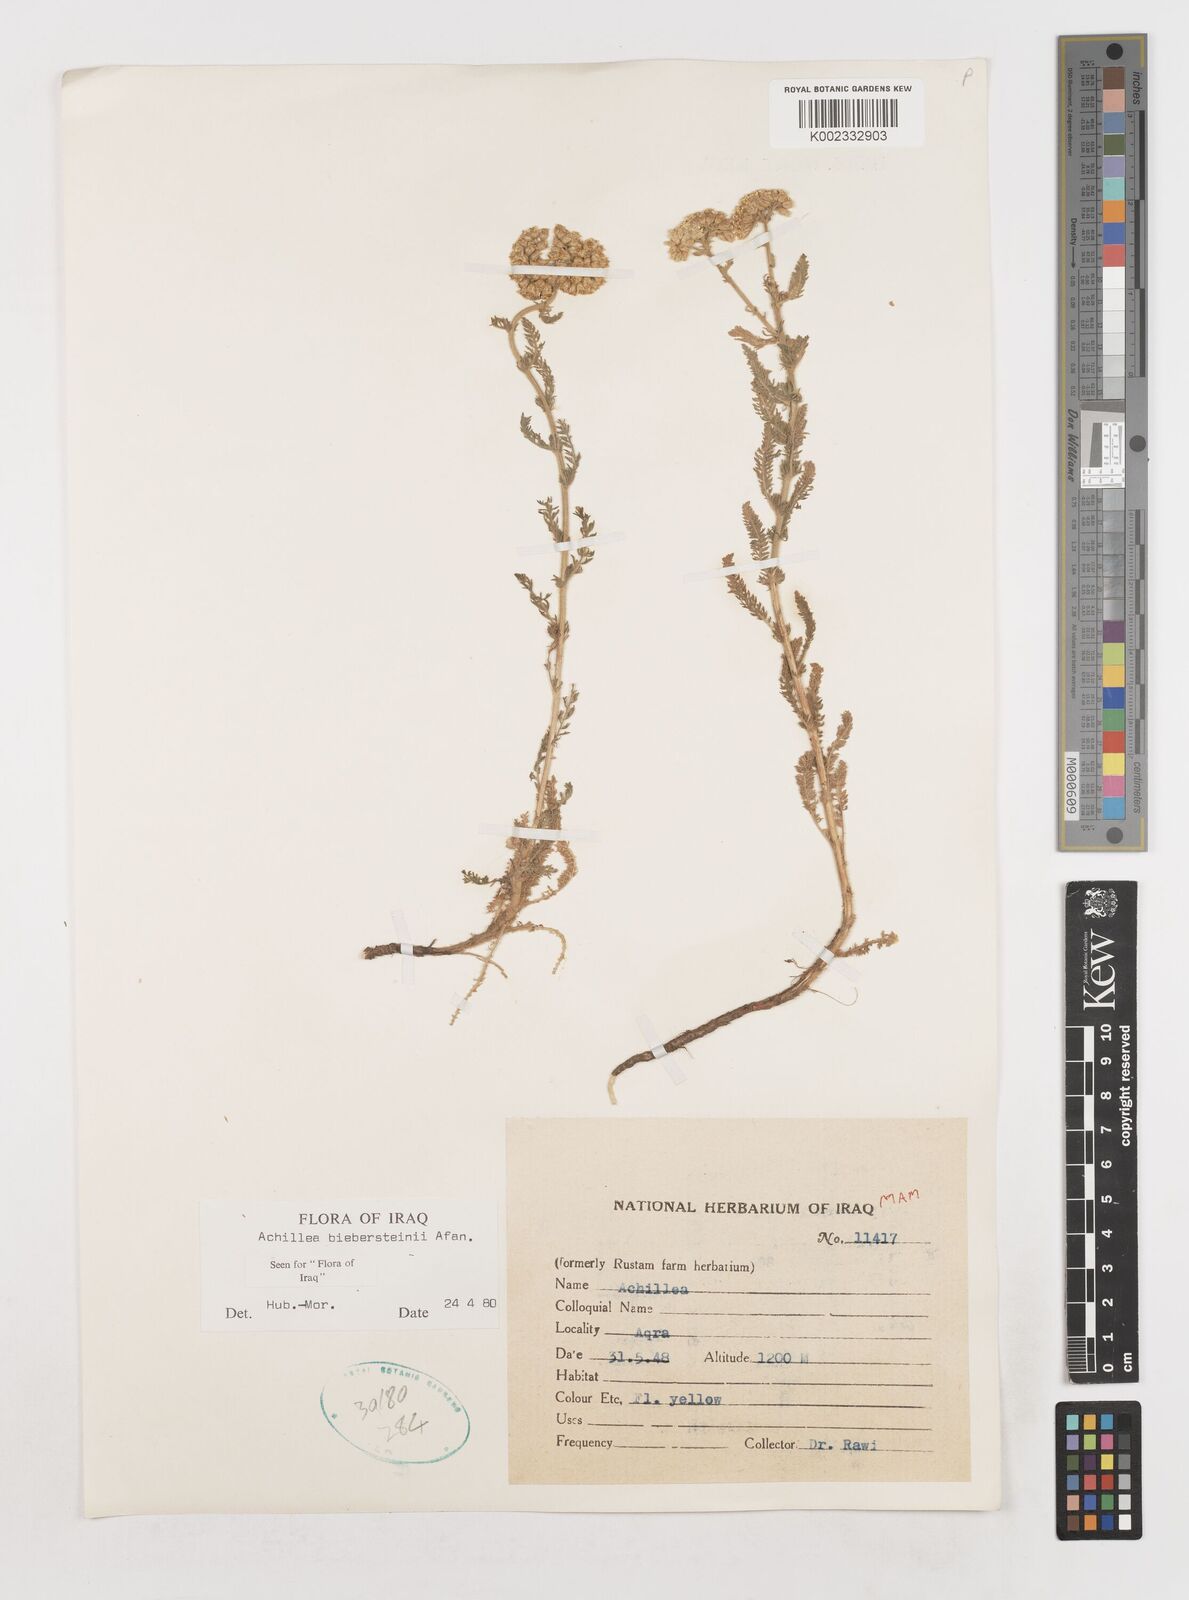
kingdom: Plantae
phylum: Tracheophyta
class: Magnoliopsida
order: Asterales
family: Asteraceae
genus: Achillea
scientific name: Achillea arabica
